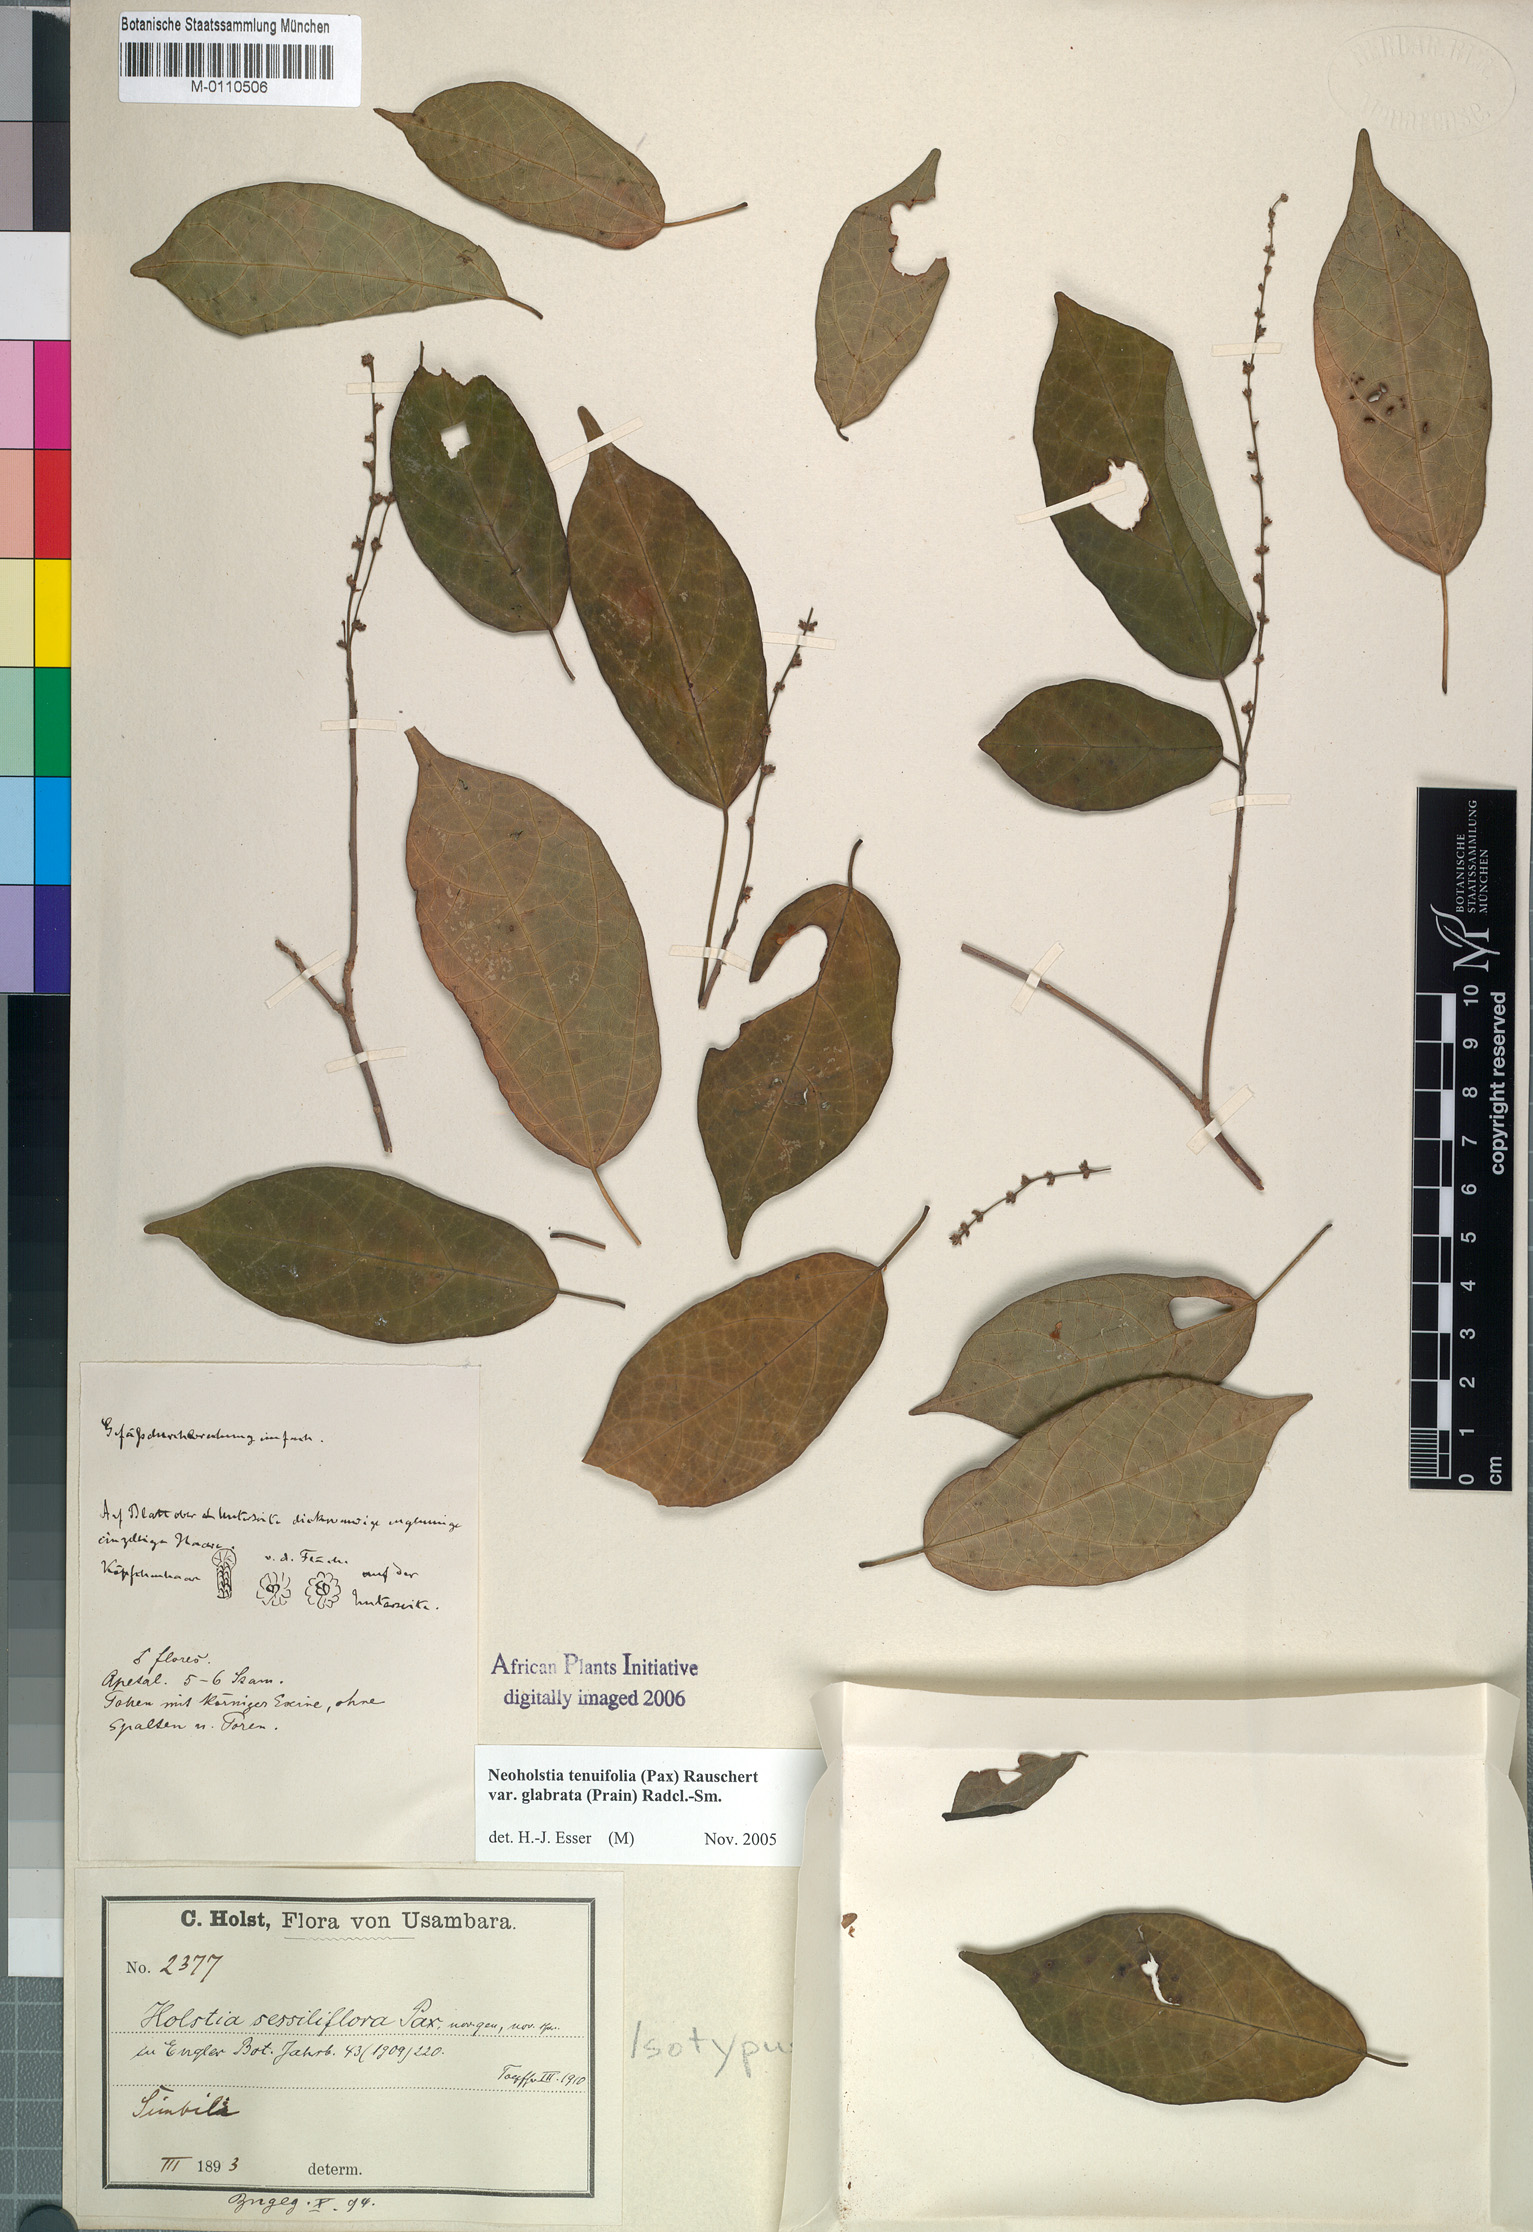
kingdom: Plantae
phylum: Tracheophyta
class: Magnoliopsida
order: Malpighiales
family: Euphorbiaceae
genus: Tannodia
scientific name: Tannodia tenuifolia
